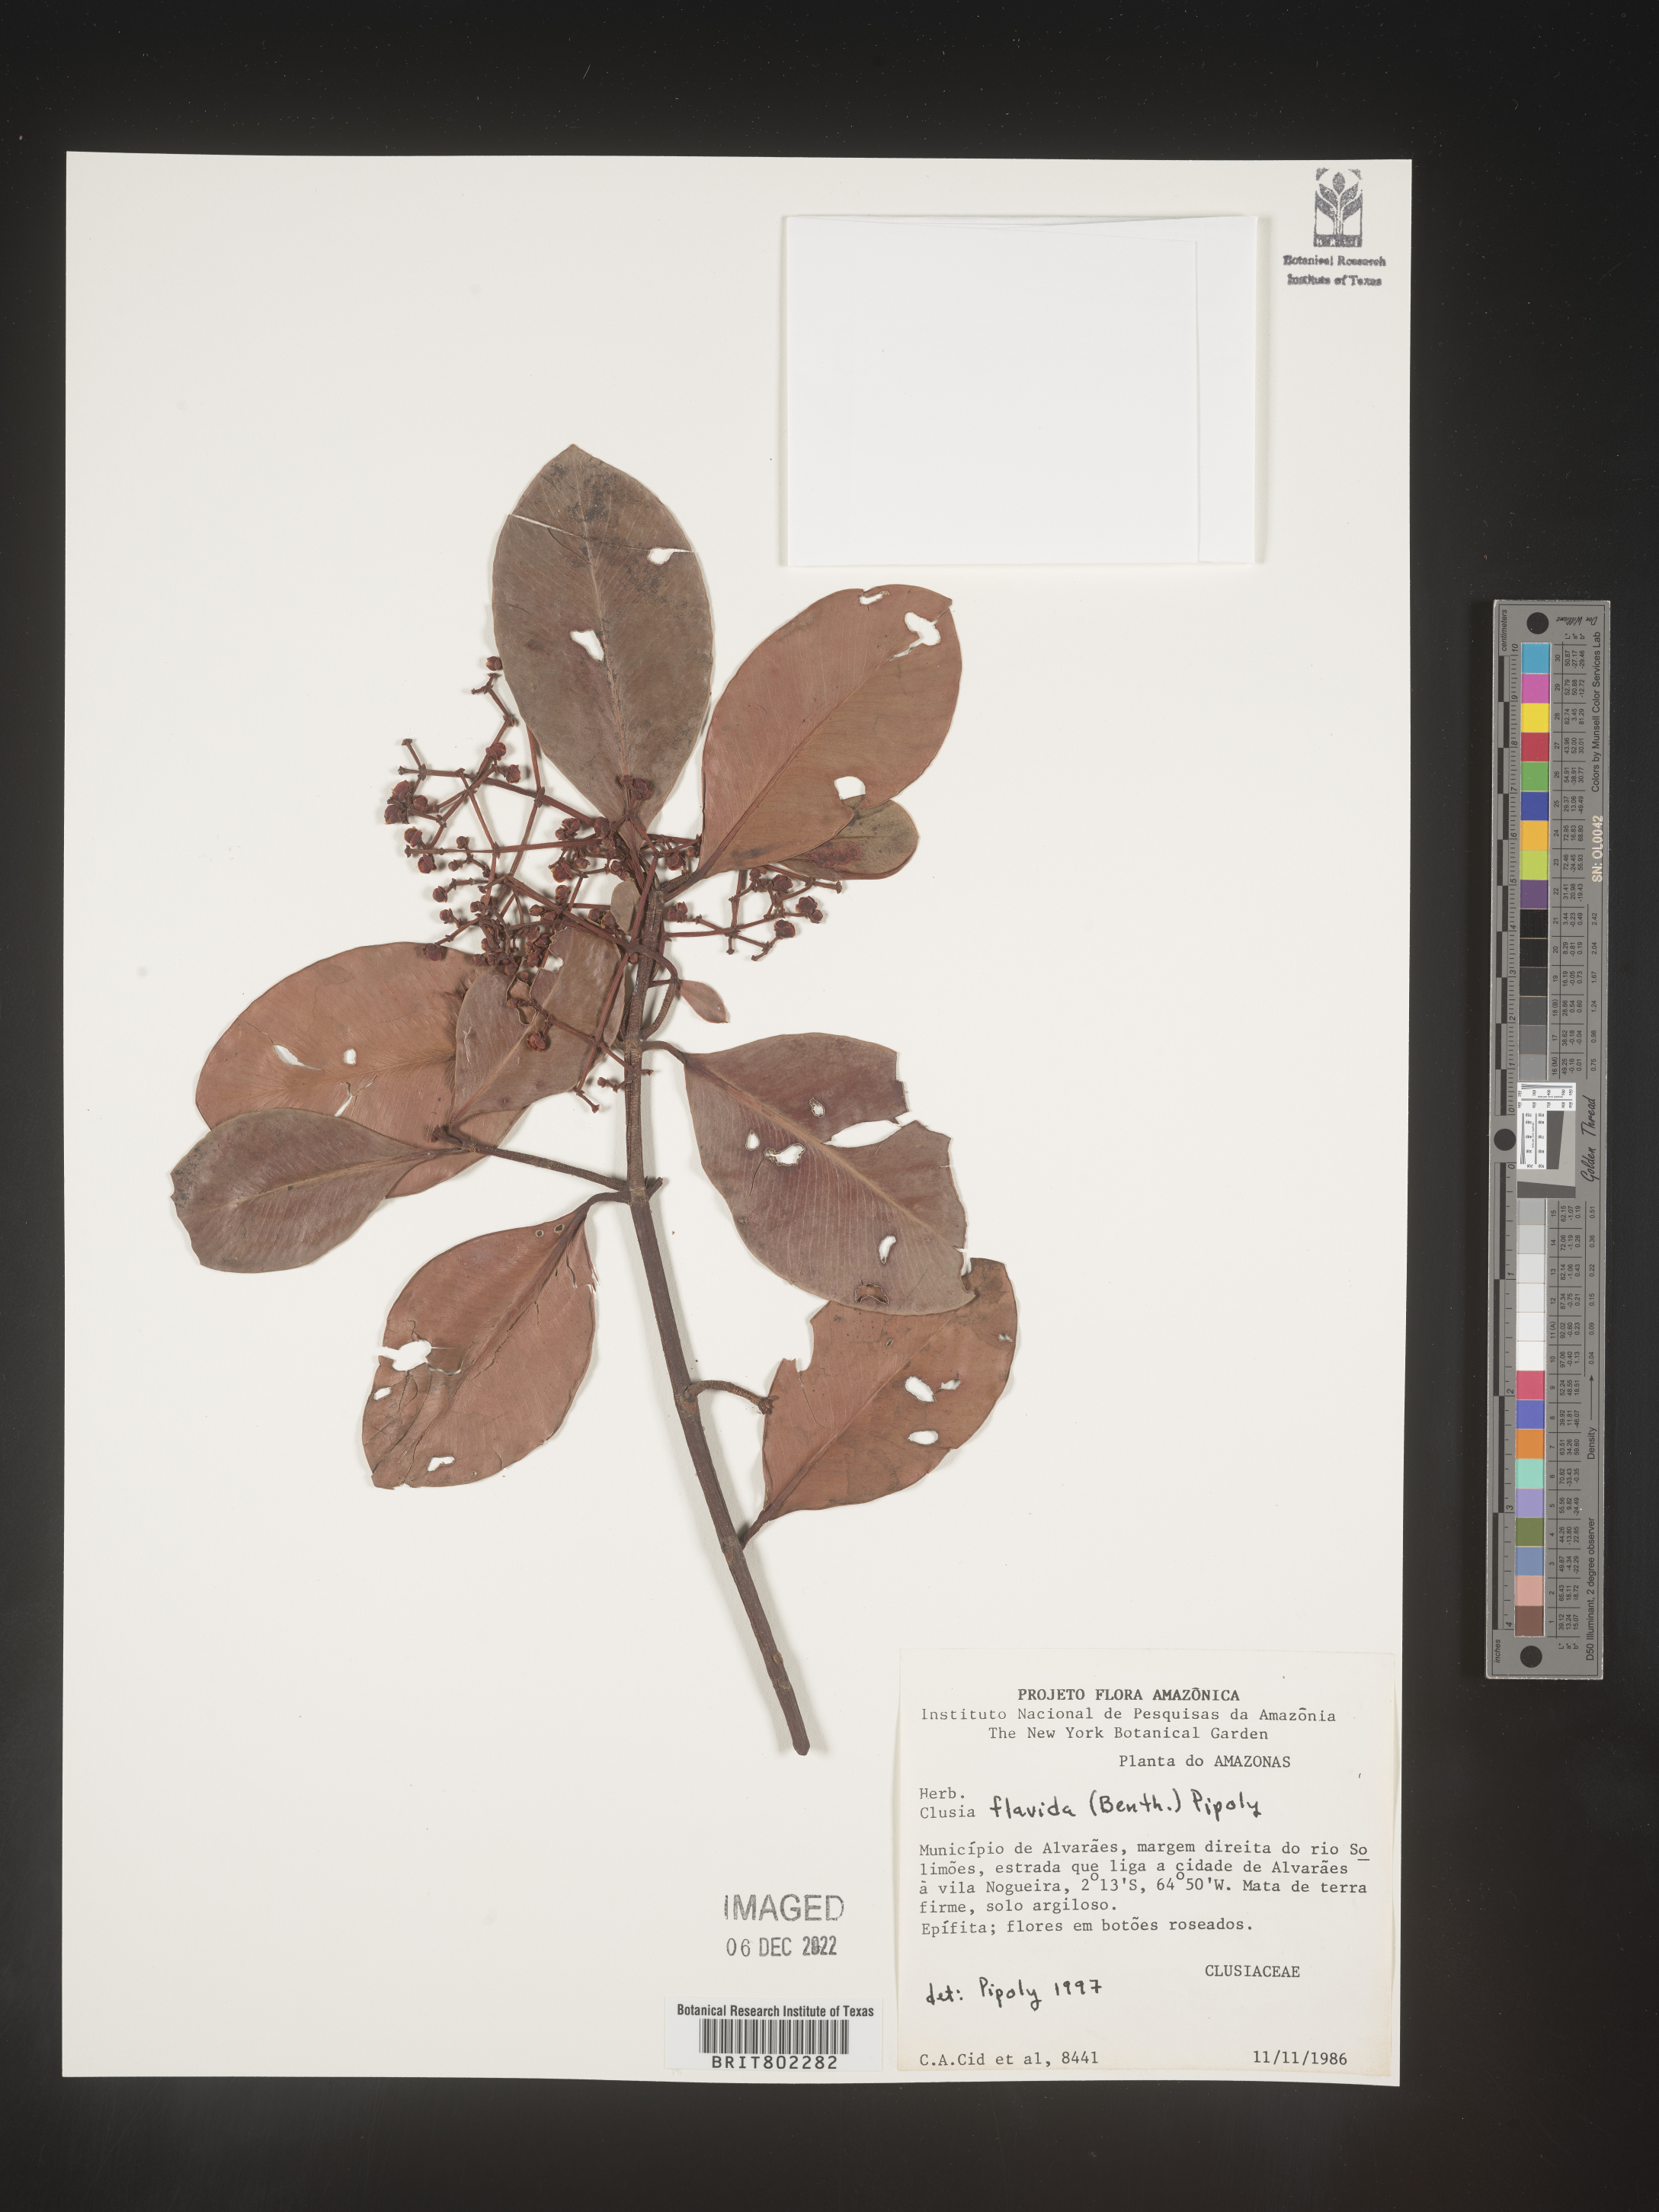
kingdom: Plantae
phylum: Tracheophyta
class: Magnoliopsida
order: Malpighiales
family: Clusiaceae
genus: Clusia
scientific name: Clusia flavida
